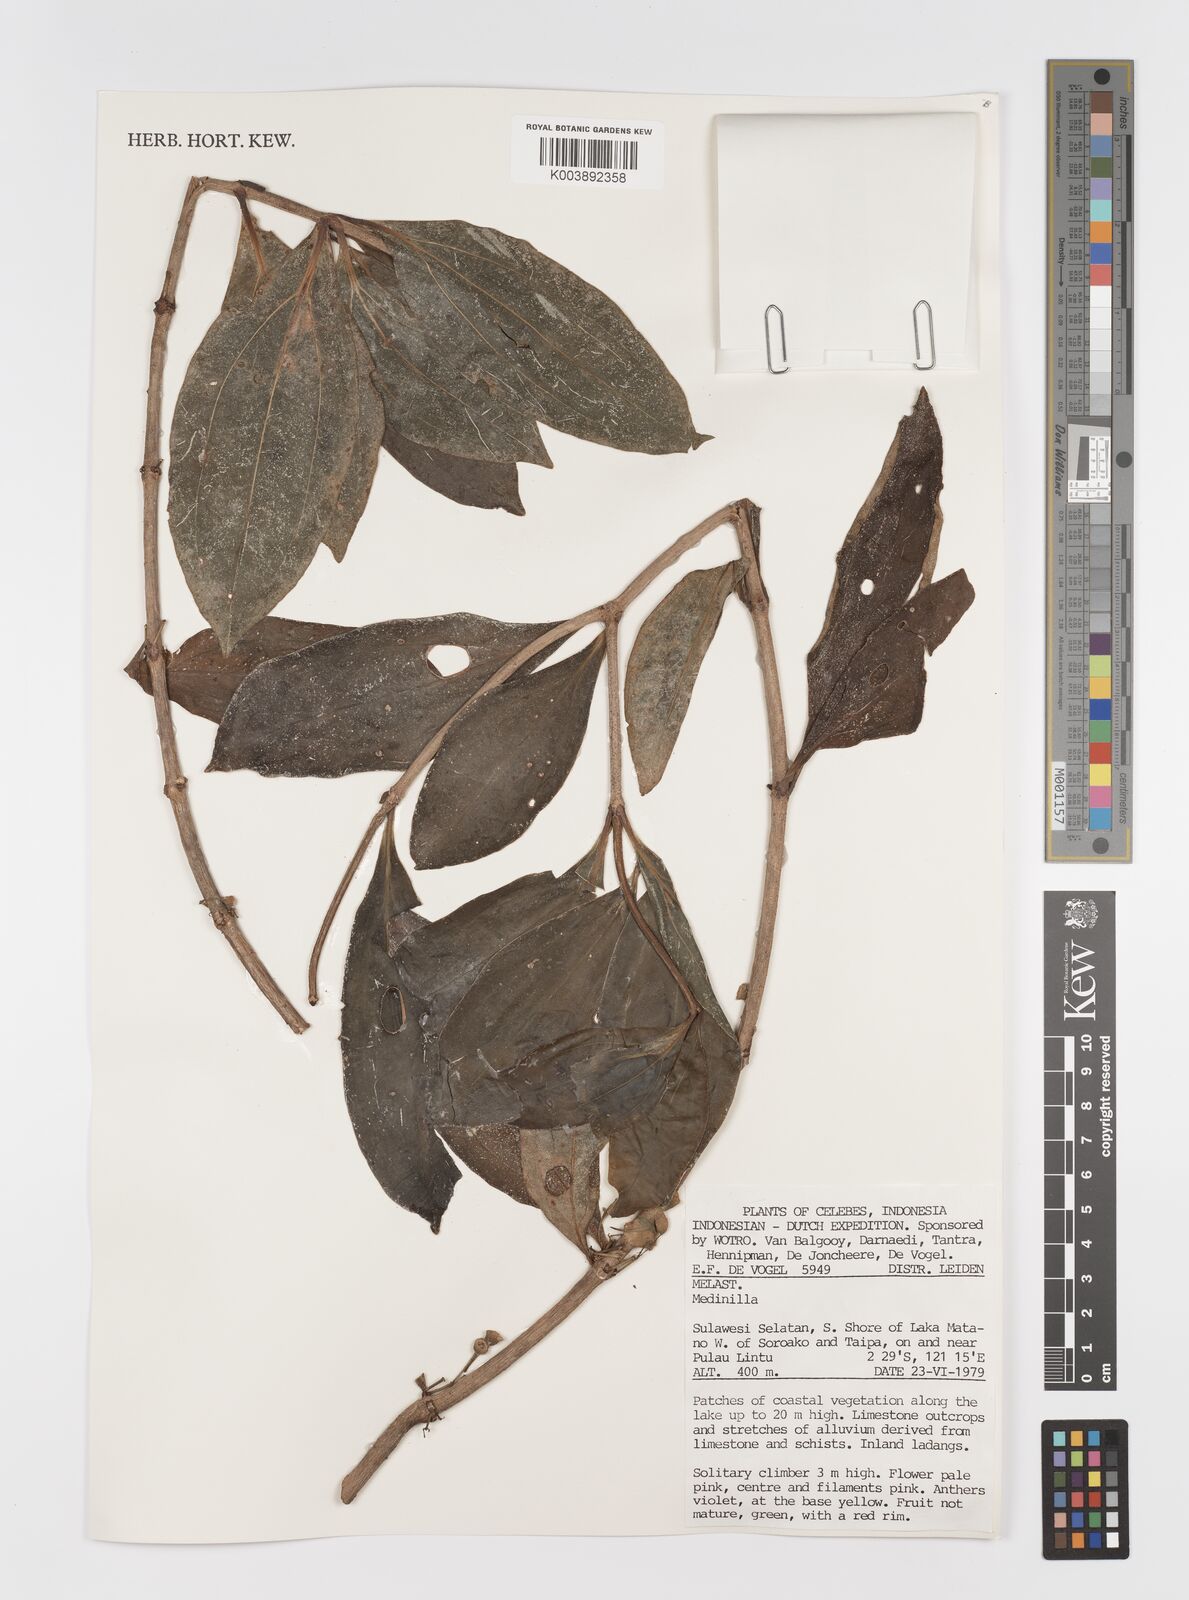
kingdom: Plantae
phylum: Tracheophyta
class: Magnoliopsida
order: Myrtales
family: Melastomataceae
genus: Medinilla
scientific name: Medinilla
